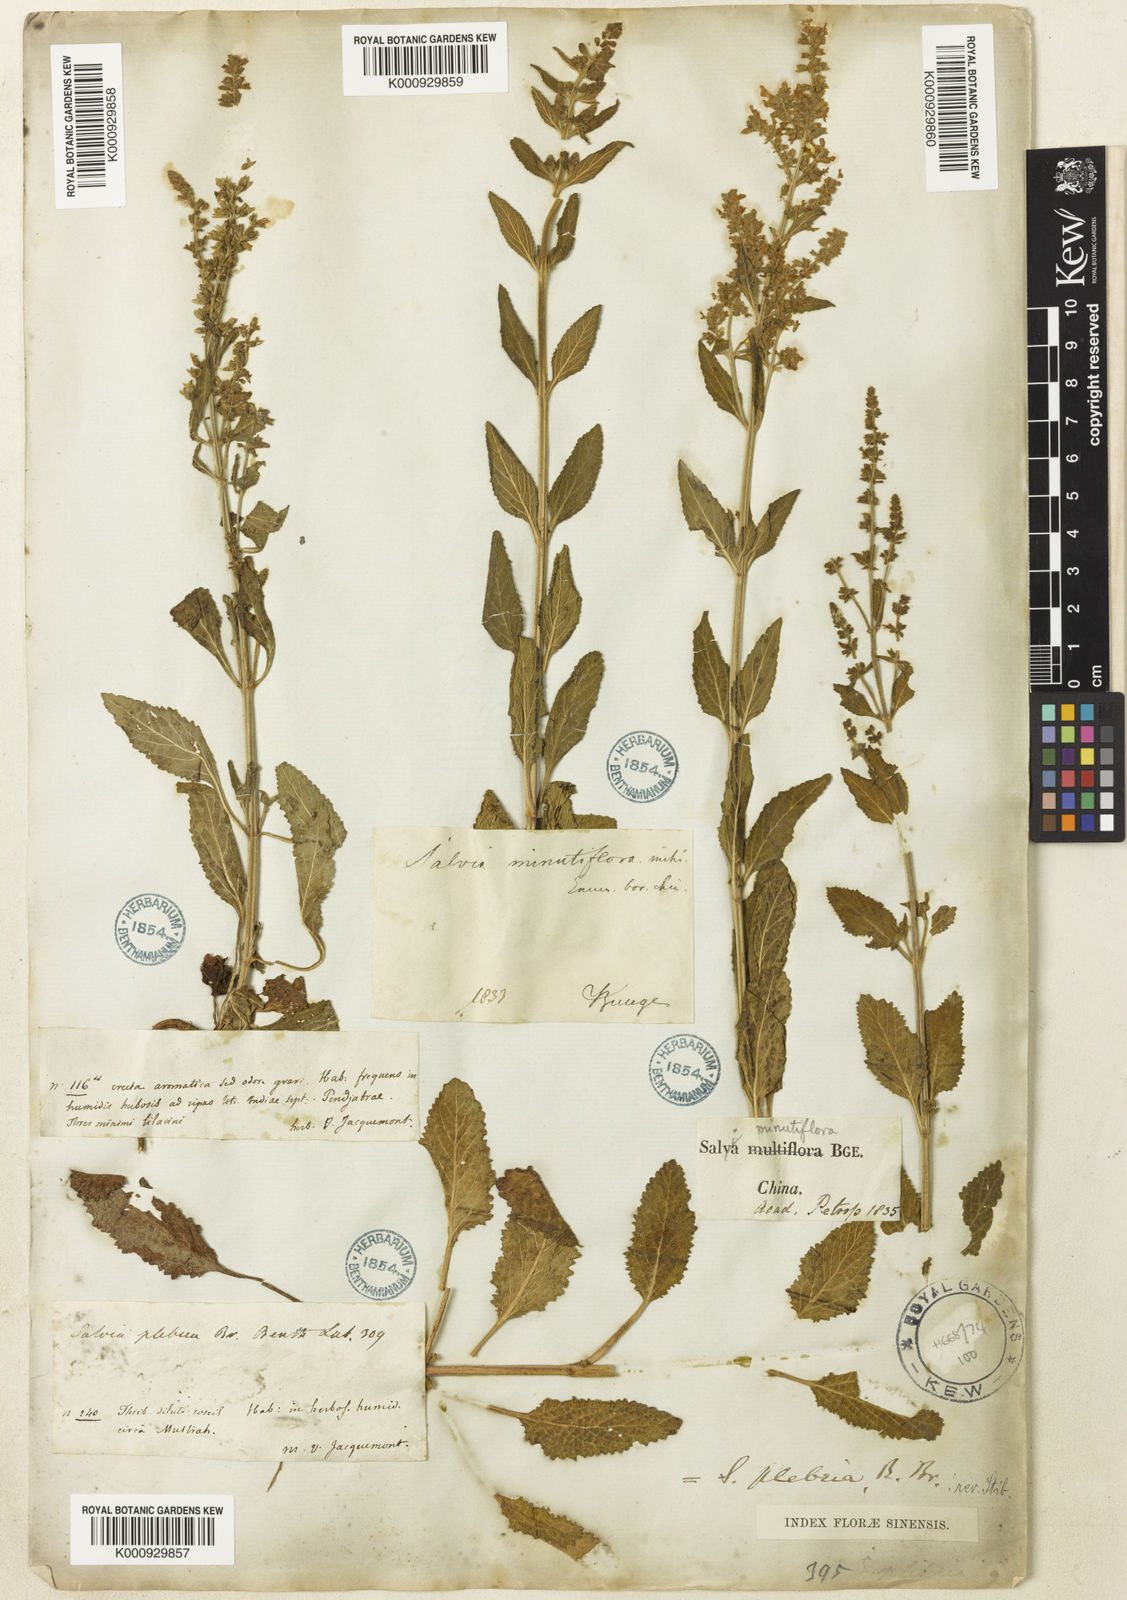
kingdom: Plantae
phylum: Tracheophyta
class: Magnoliopsida
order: Lamiales
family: Lamiaceae
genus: Salvia
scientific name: Salvia plebeia
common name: Australian sage
